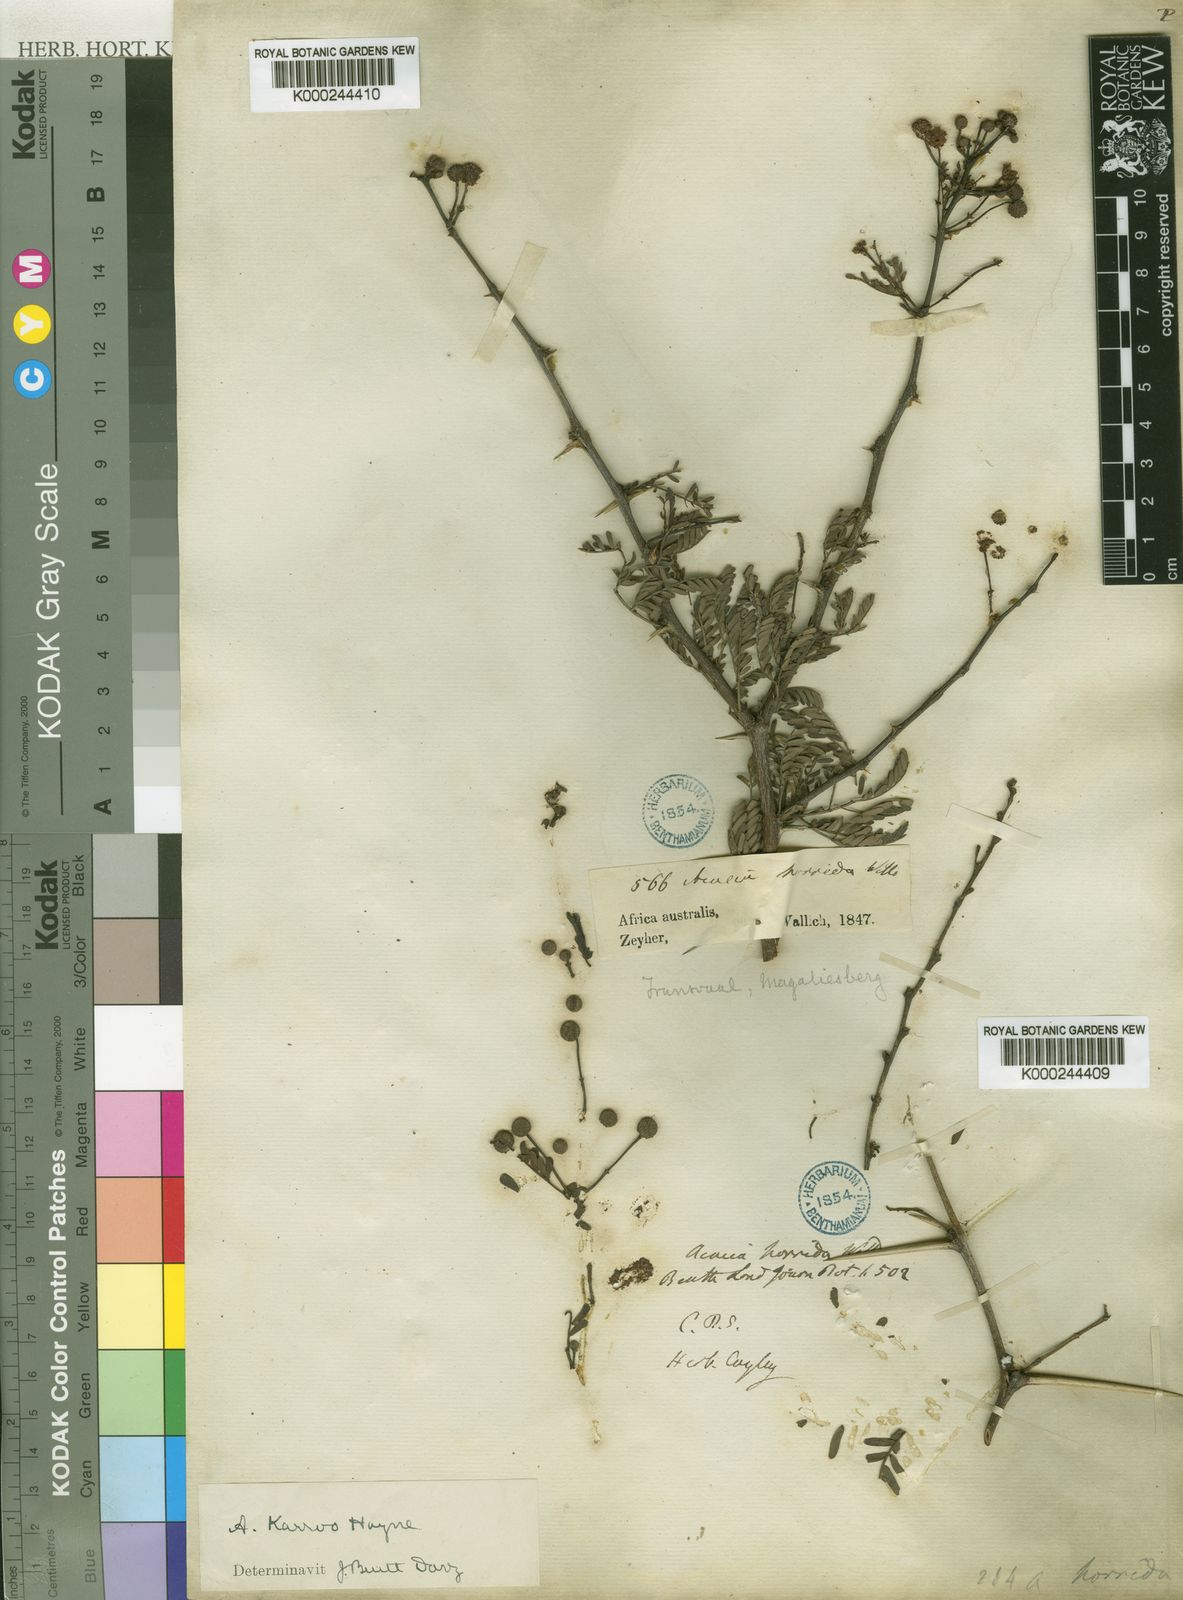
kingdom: Plantae
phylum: Tracheophyta
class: Magnoliopsida
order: Fabales
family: Fabaceae
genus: Vachellia
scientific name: Vachellia karroo
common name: Sweet thorn
